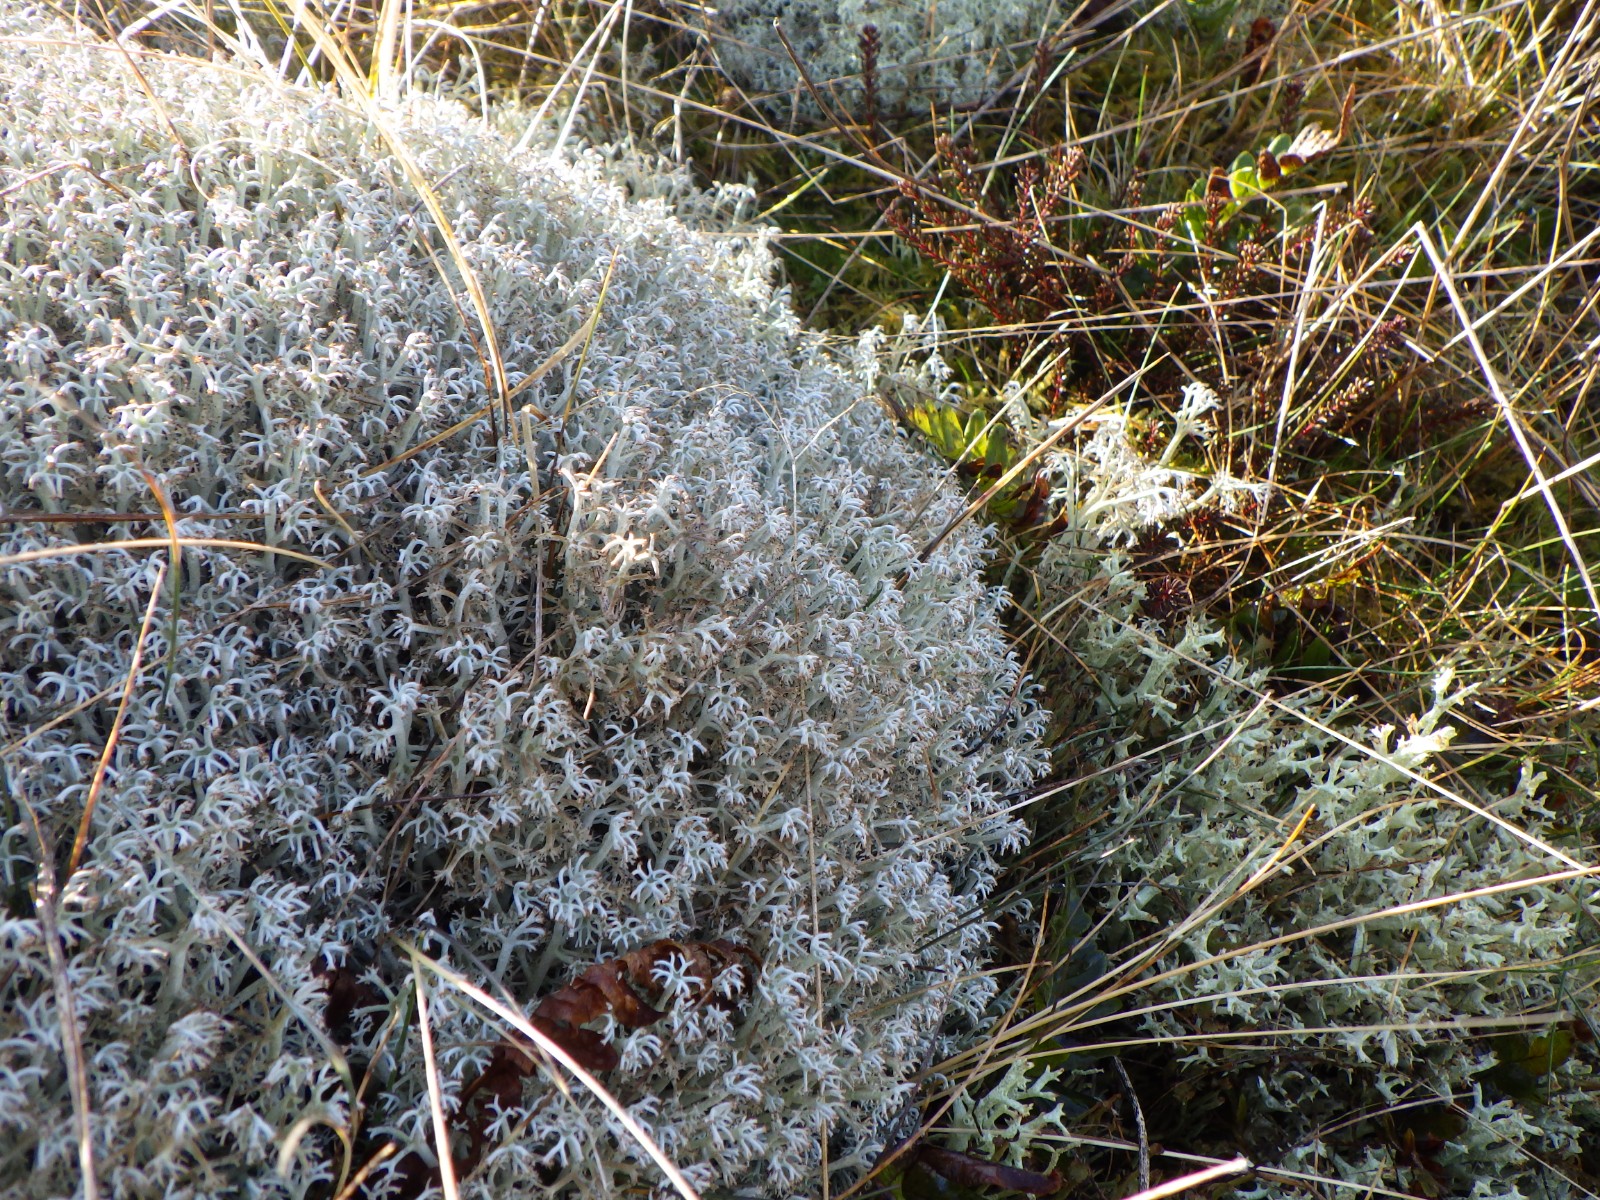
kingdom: Fungi
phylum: Ascomycota
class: Lecanoromycetes
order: Lecanorales
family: Cladoniaceae
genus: Cladonia
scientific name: Cladonia rangiferina
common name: askegrå rensdyrlav
